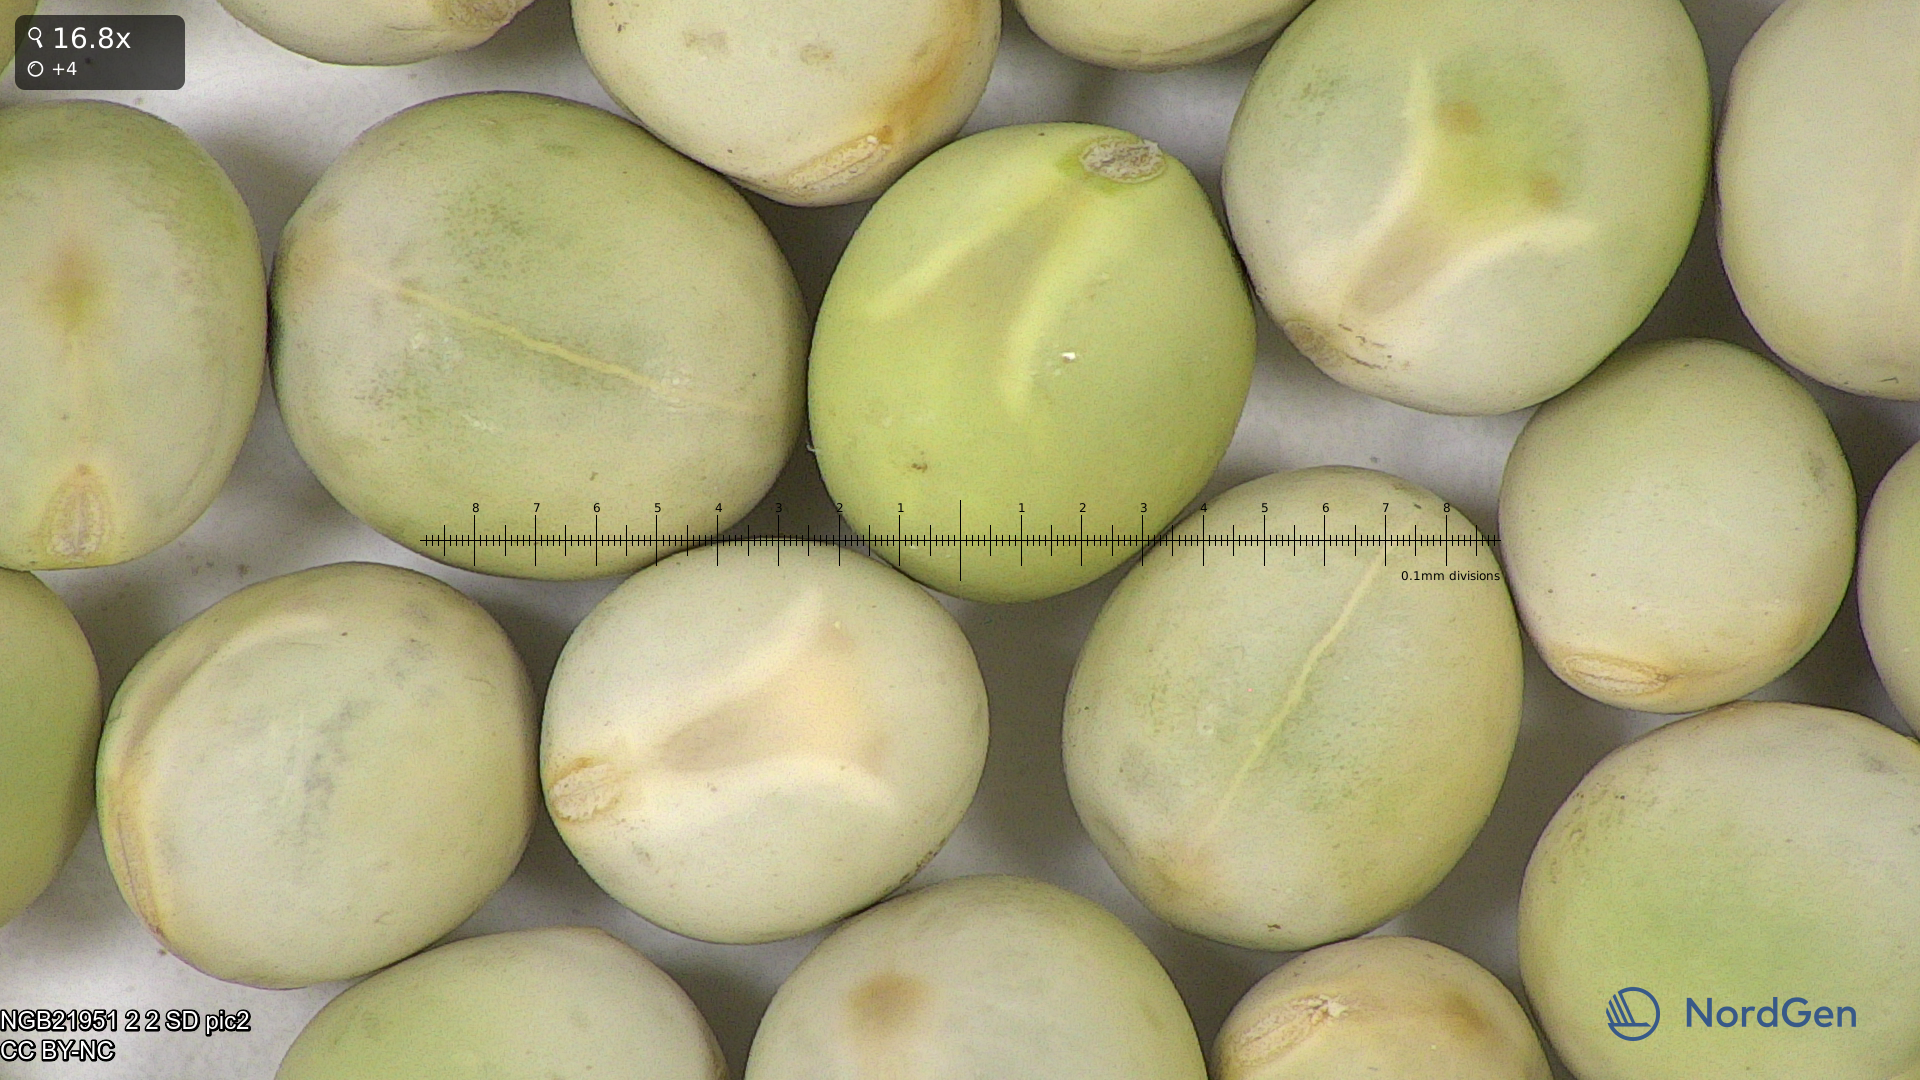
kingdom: Plantae
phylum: Tracheophyta
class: Magnoliopsida
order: Fabales
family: Fabaceae
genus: Lathyrus
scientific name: Lathyrus oleraceus
